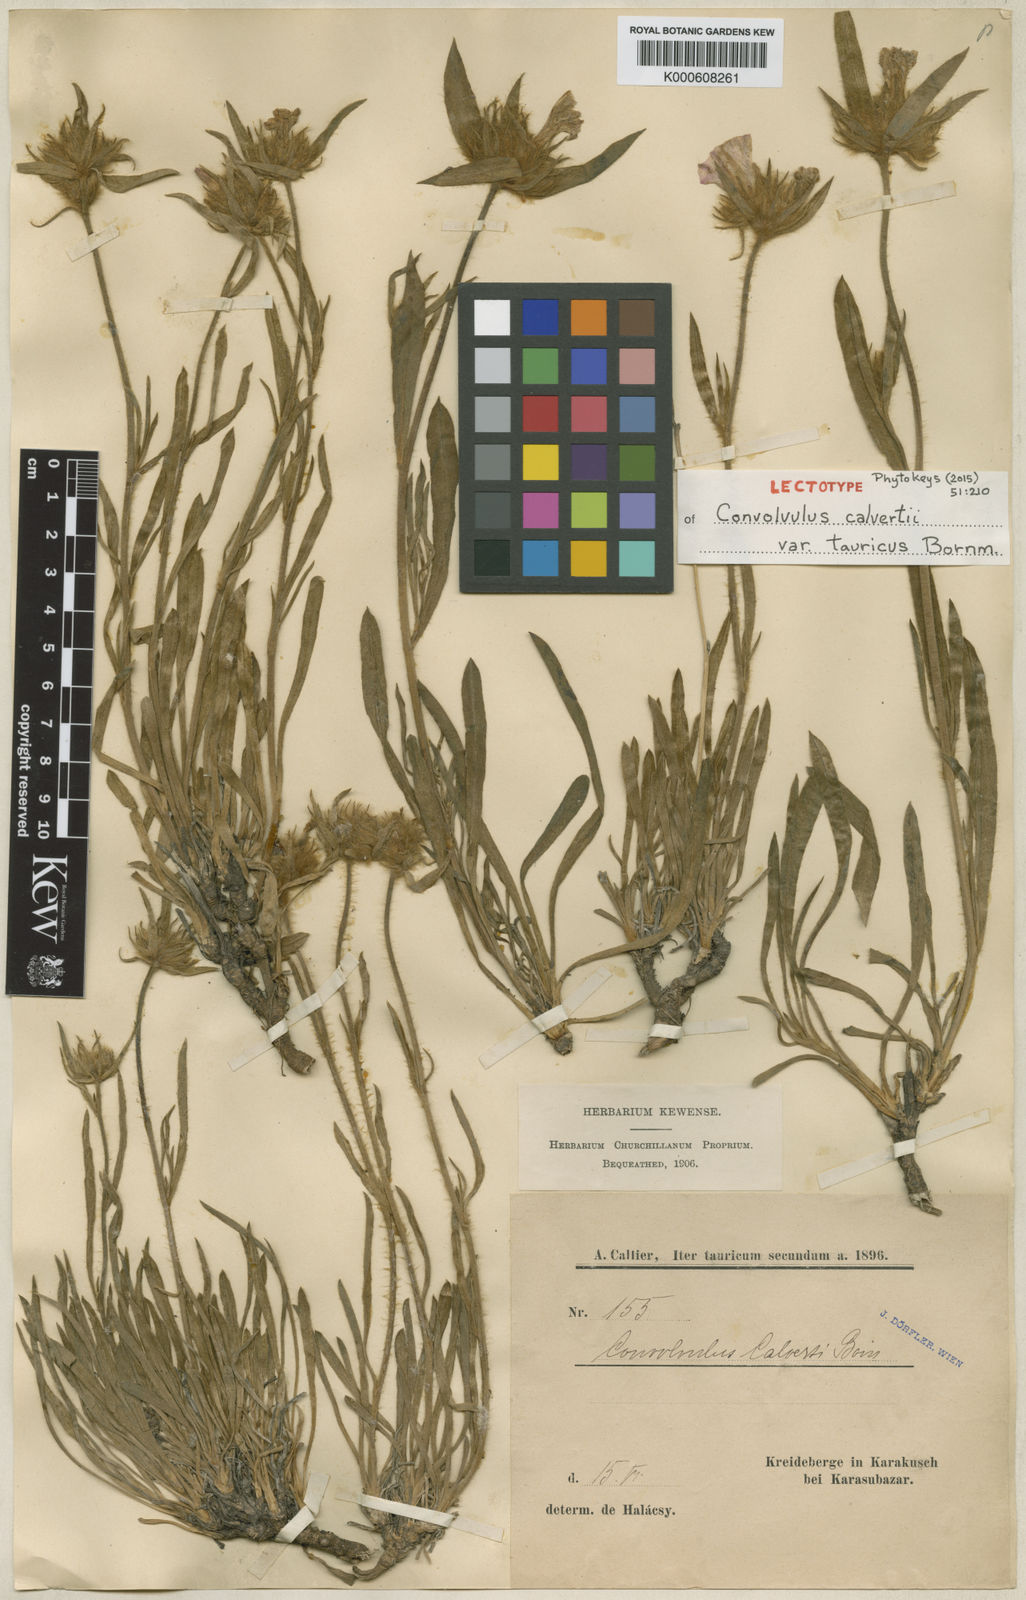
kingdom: Plantae
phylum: Tracheophyta
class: Magnoliopsida
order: Solanales
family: Convolvulaceae
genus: Convolvulus
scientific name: Convolvulus calvertii
